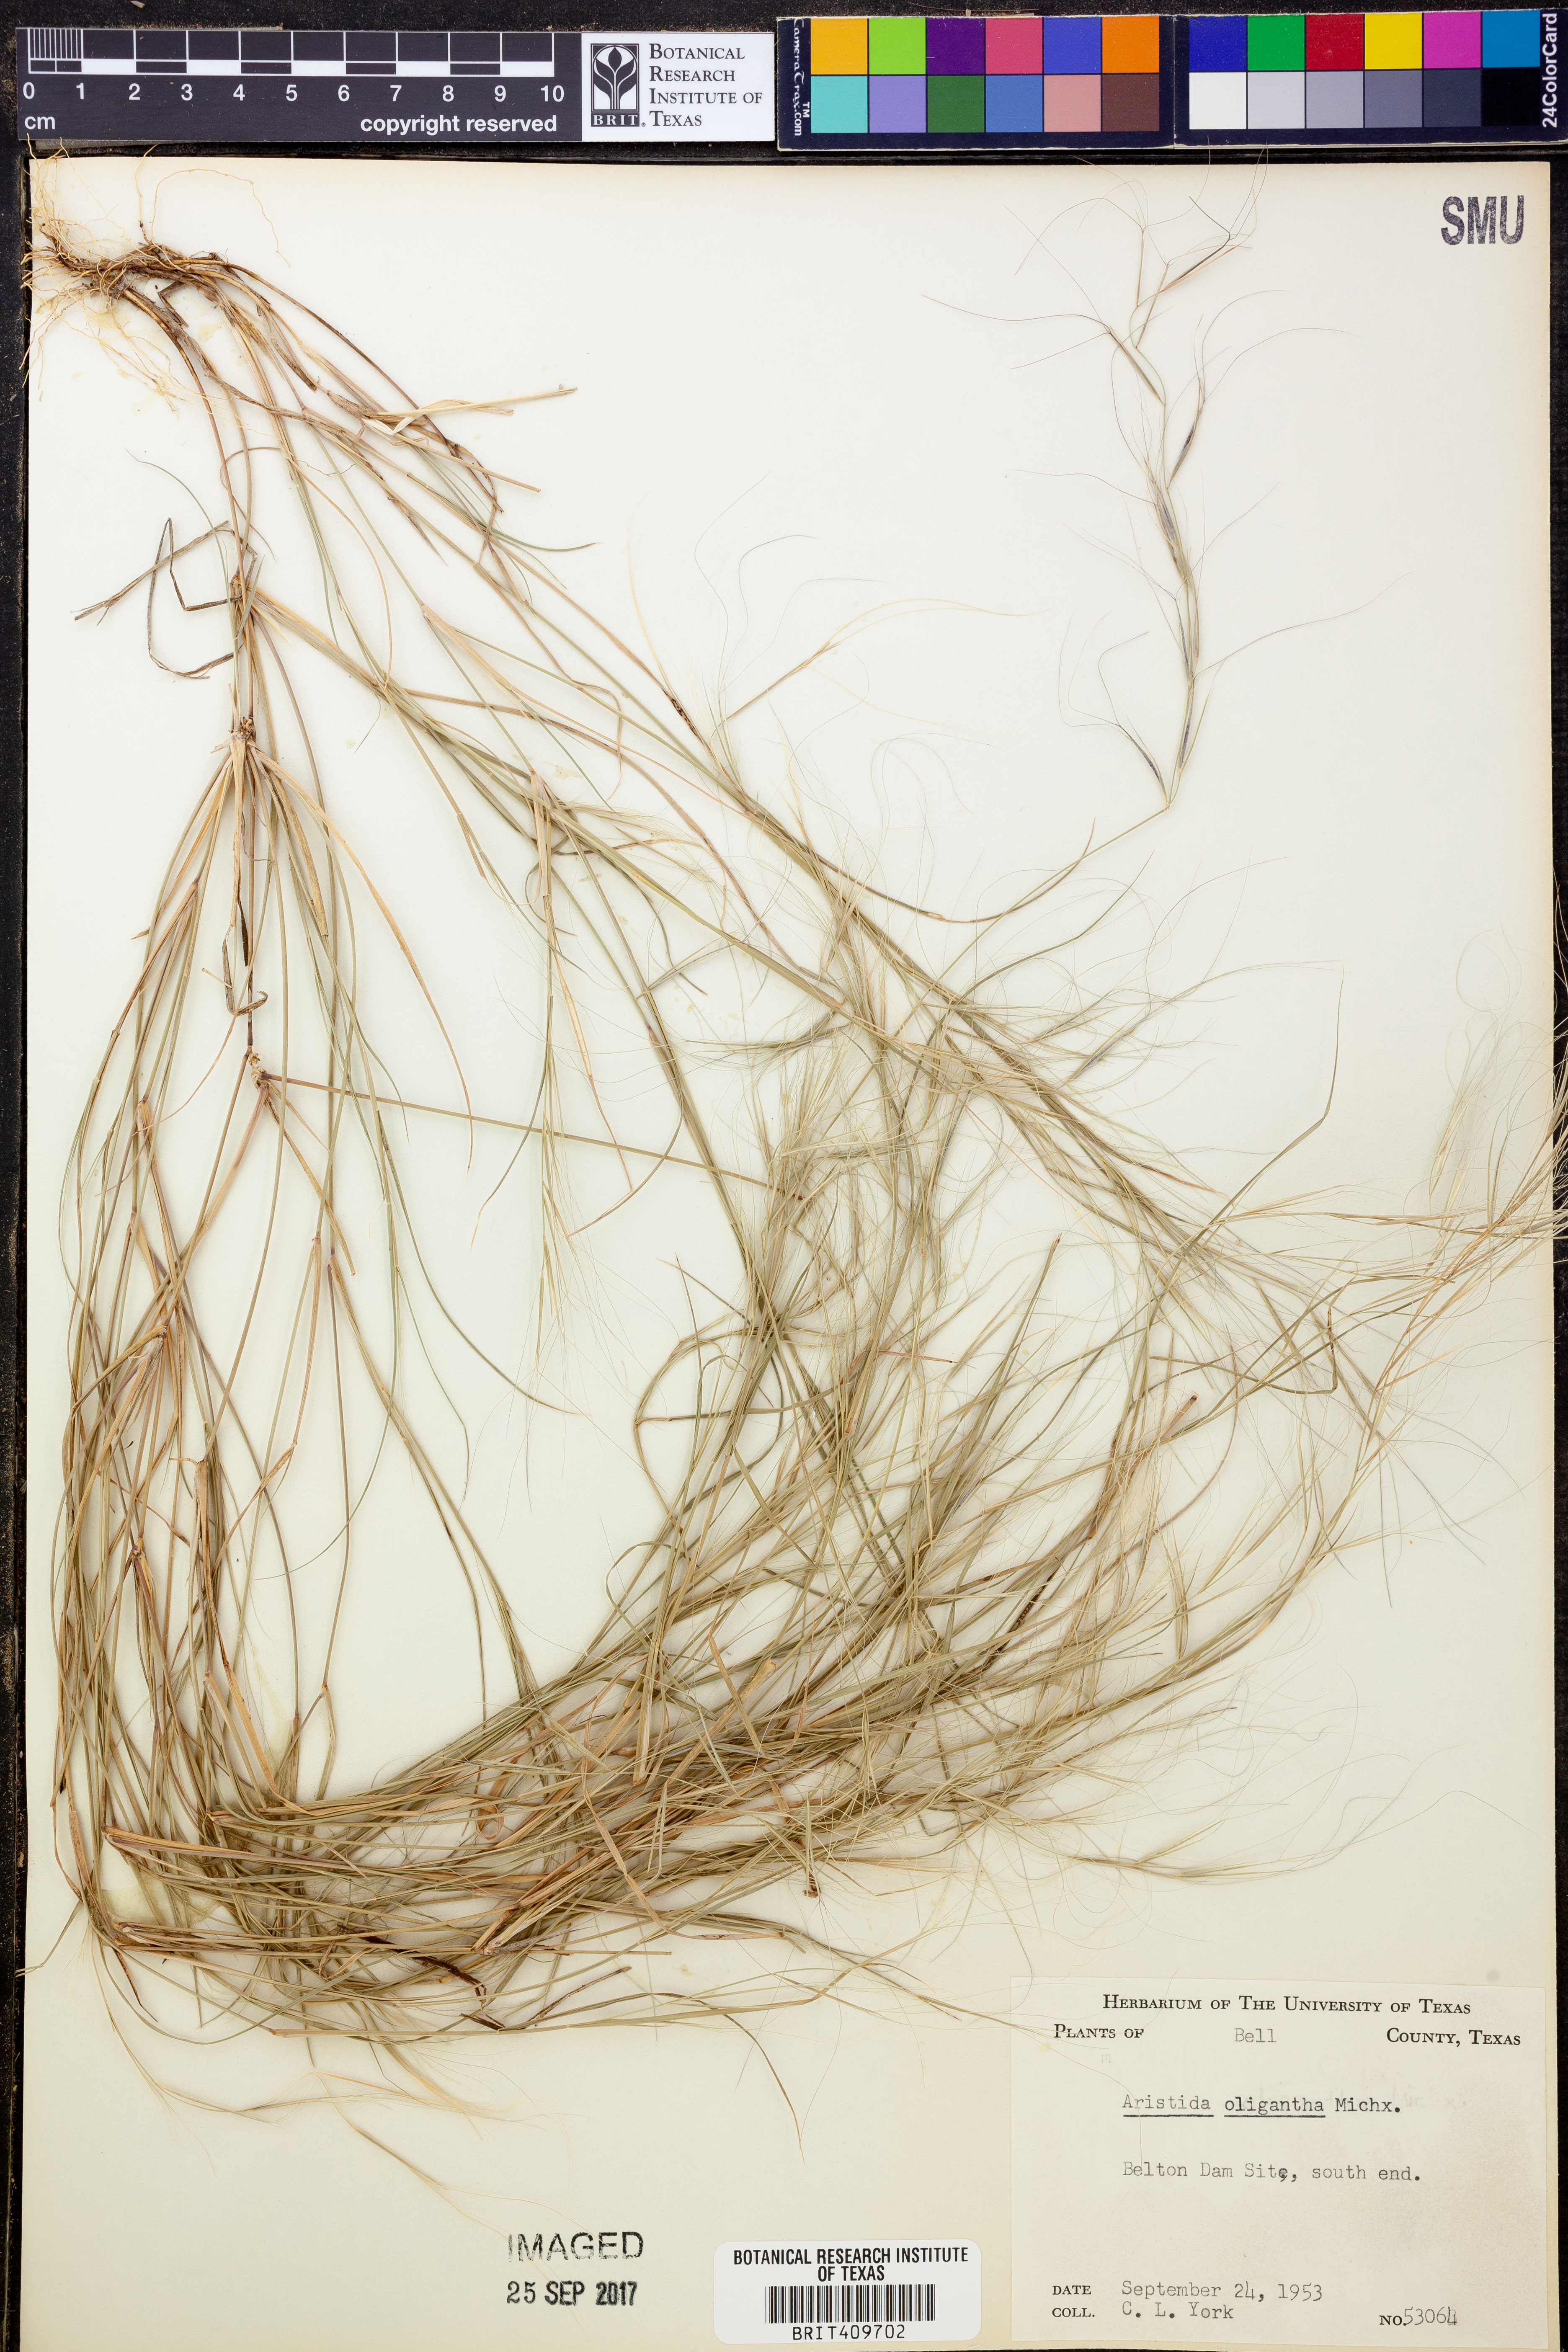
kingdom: Plantae
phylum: Tracheophyta
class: Liliopsida
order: Poales
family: Poaceae
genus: Aristida
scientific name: Aristida oligantha
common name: Few-flowered aristida
